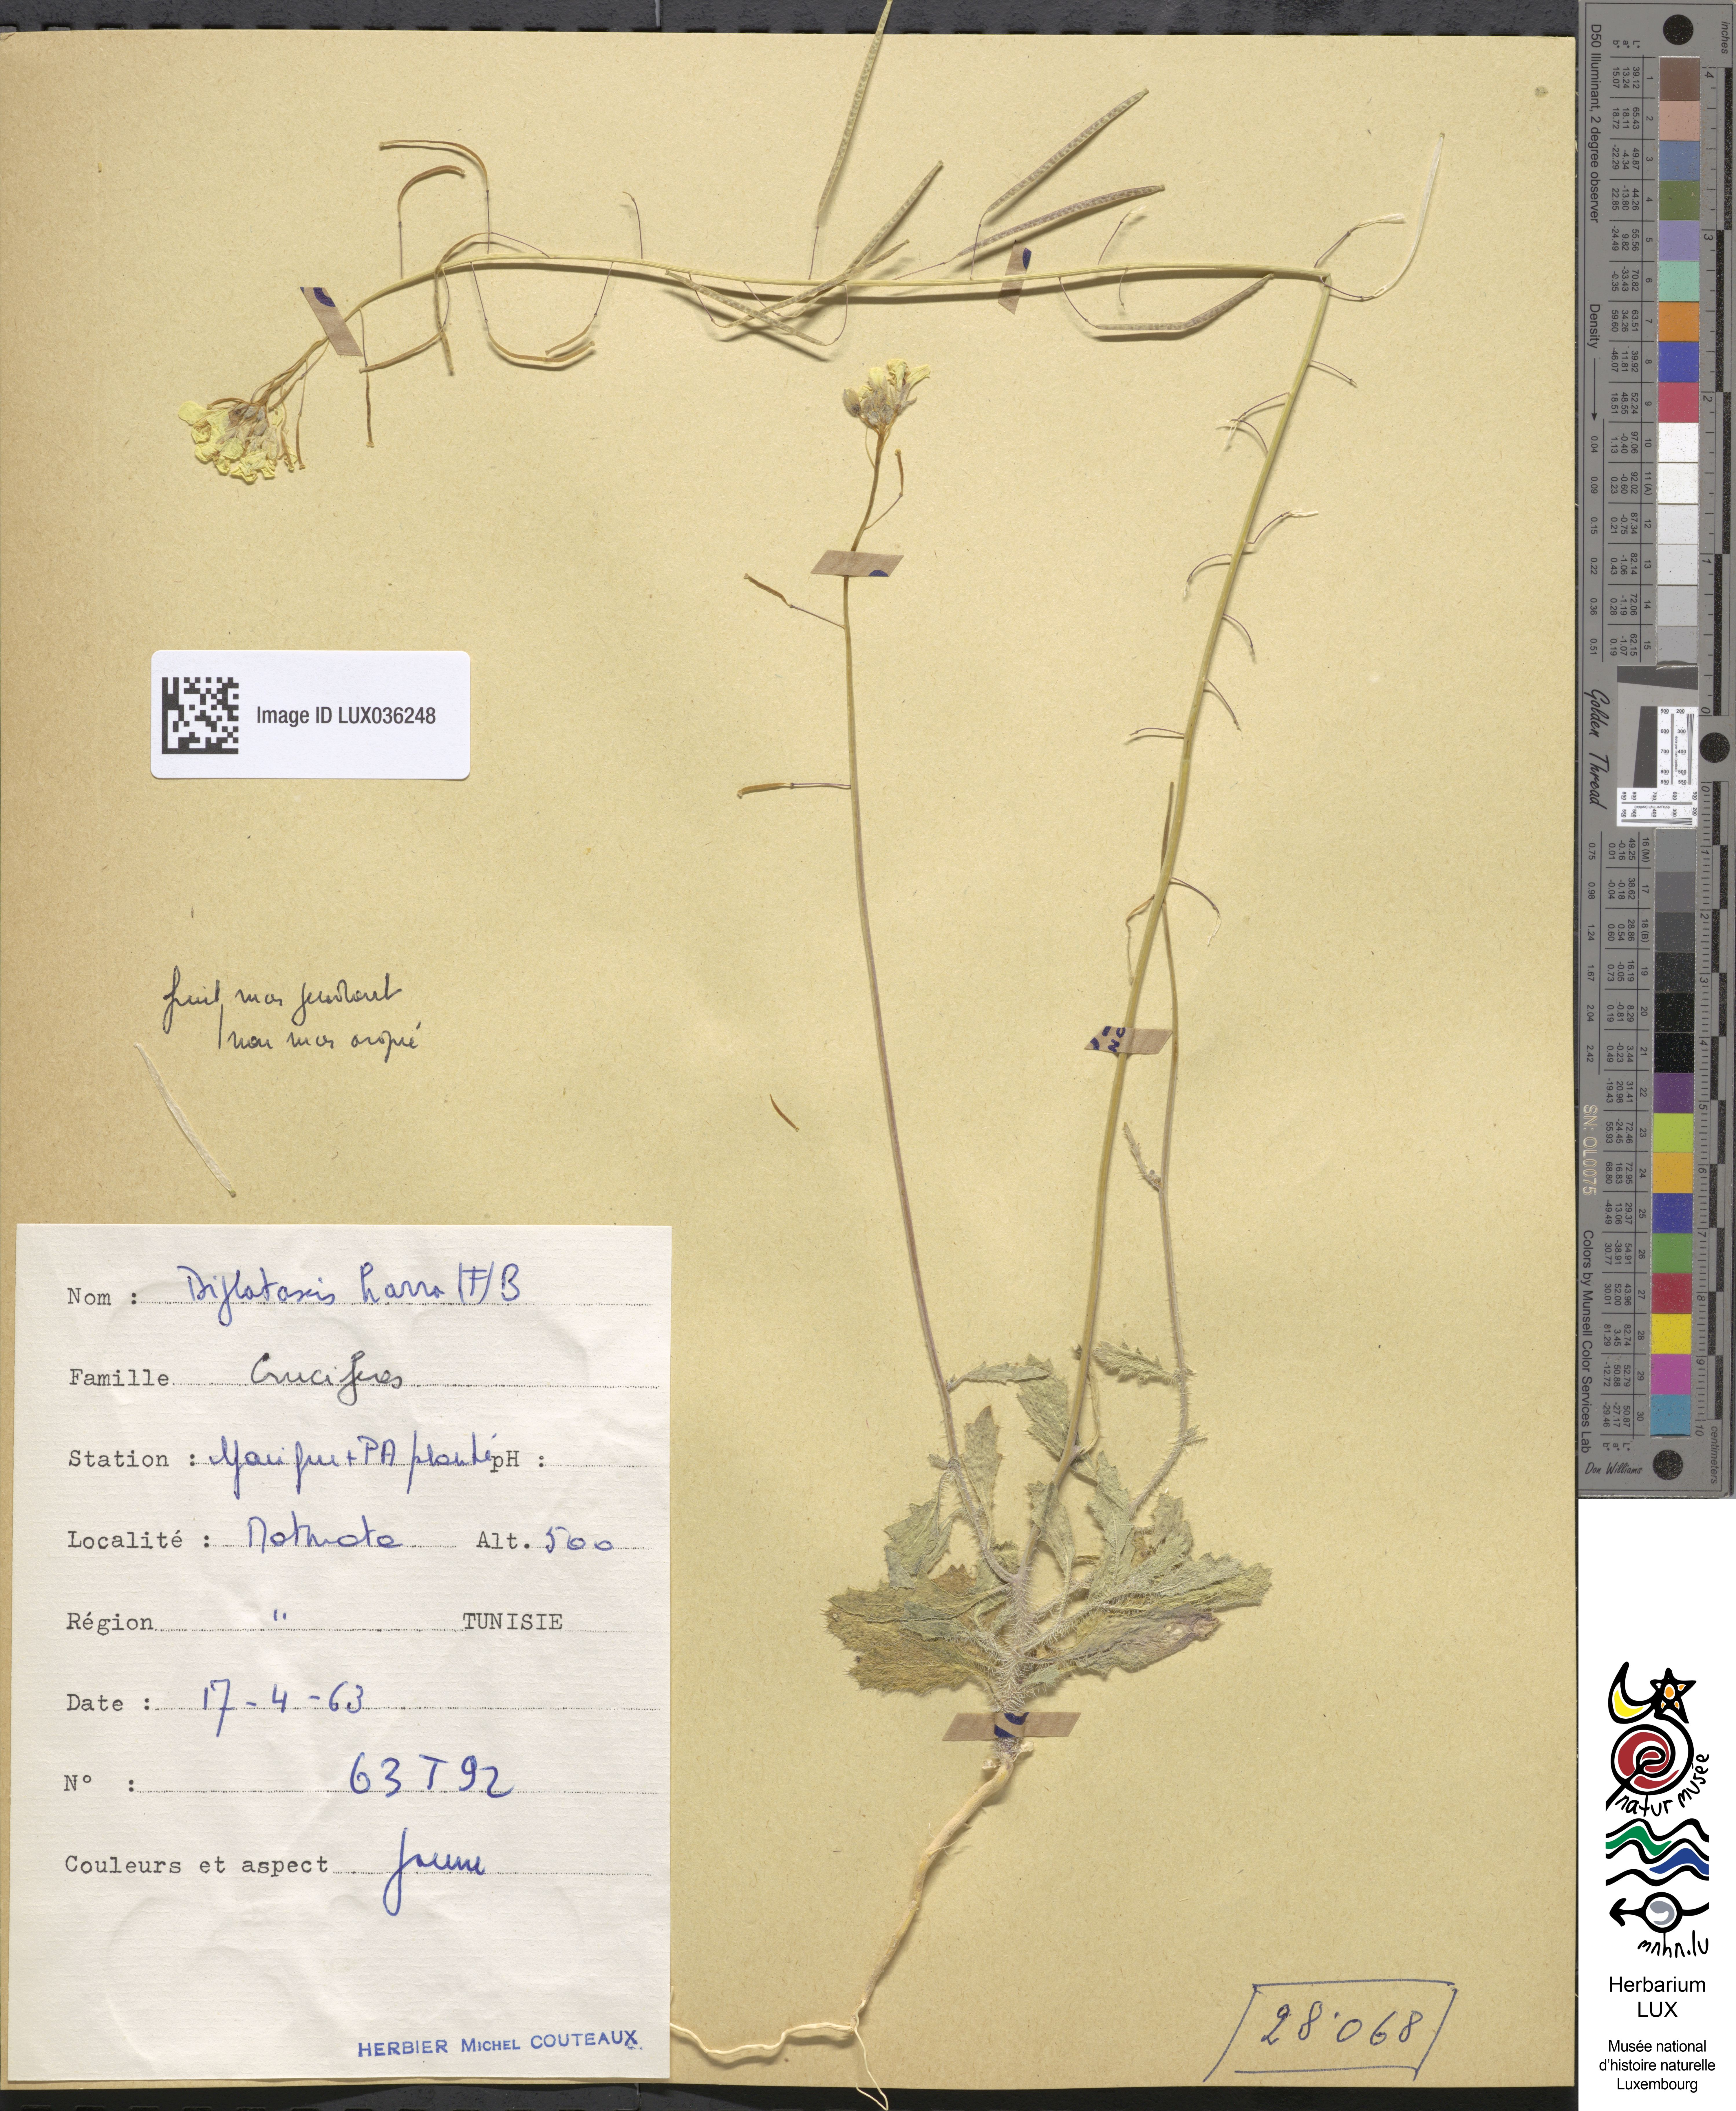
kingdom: Plantae
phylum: Tracheophyta
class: Magnoliopsida
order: Brassicales
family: Brassicaceae
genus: Diplotaxis
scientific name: Diplotaxis harra
